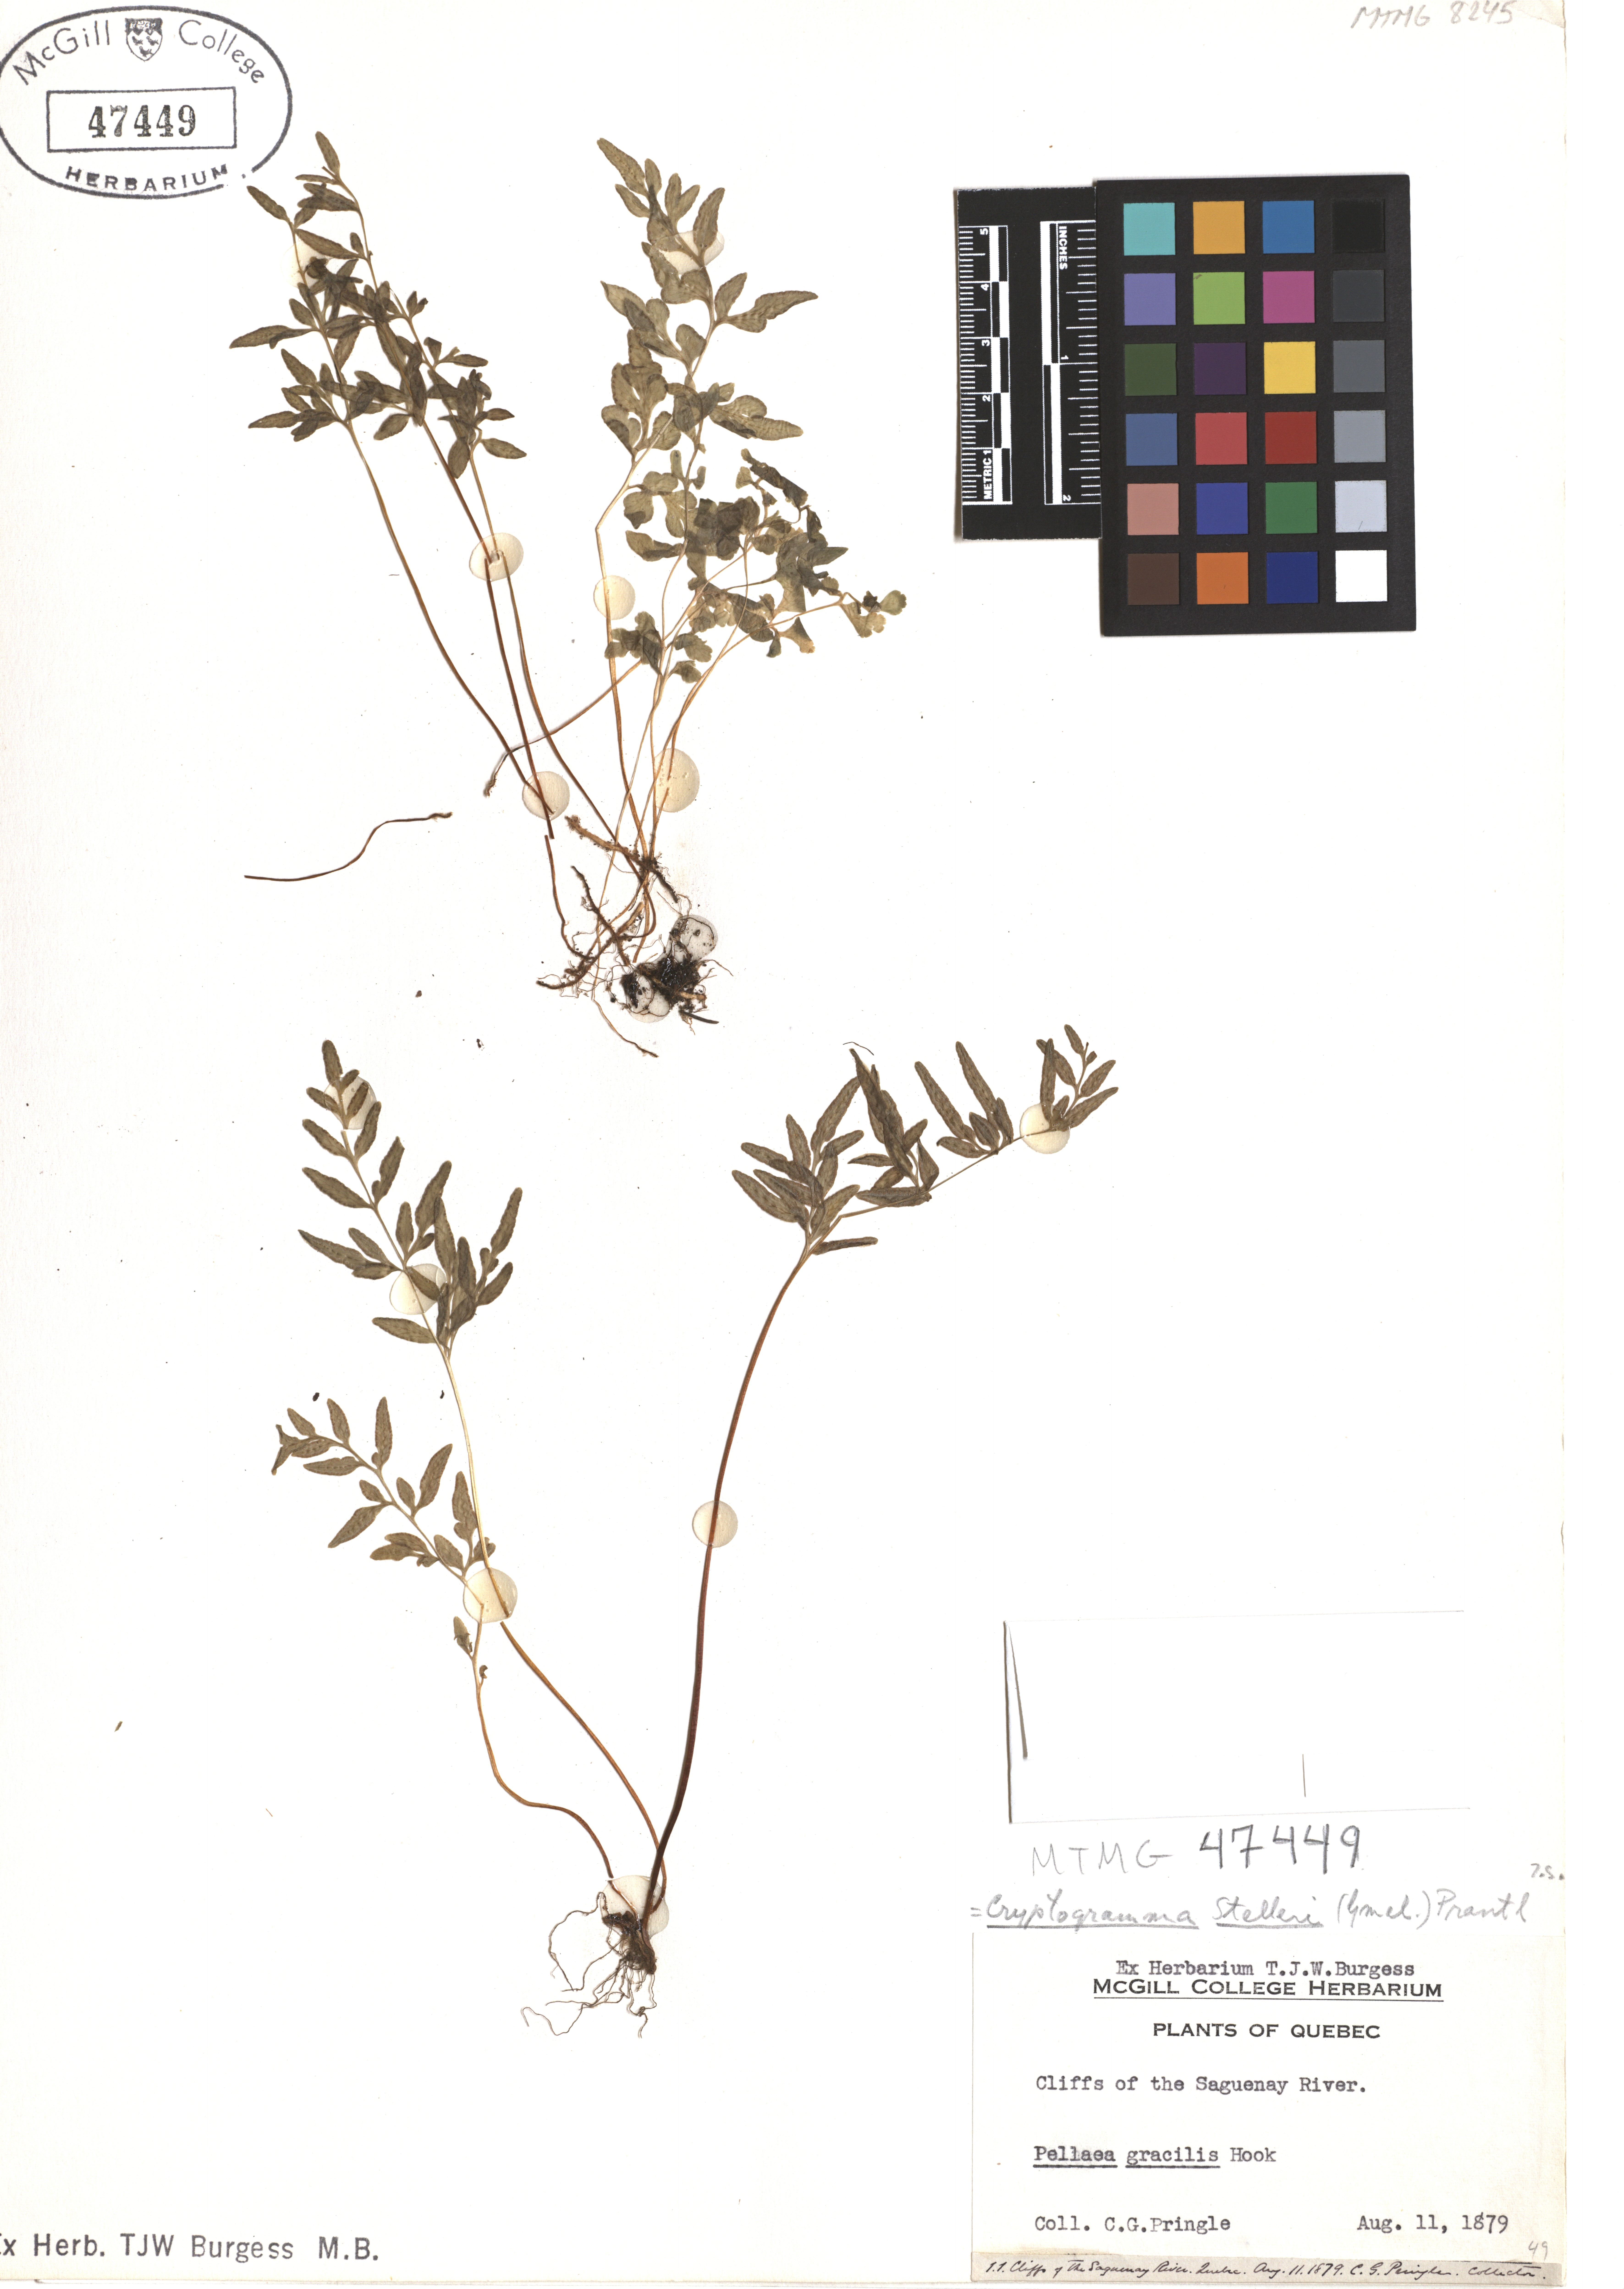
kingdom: Plantae
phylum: Tracheophyta
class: Polypodiopsida
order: Polypodiales
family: Pteridaceae
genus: Cryptogramma
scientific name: Cryptogramma stelleri
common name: Cliff-brake
